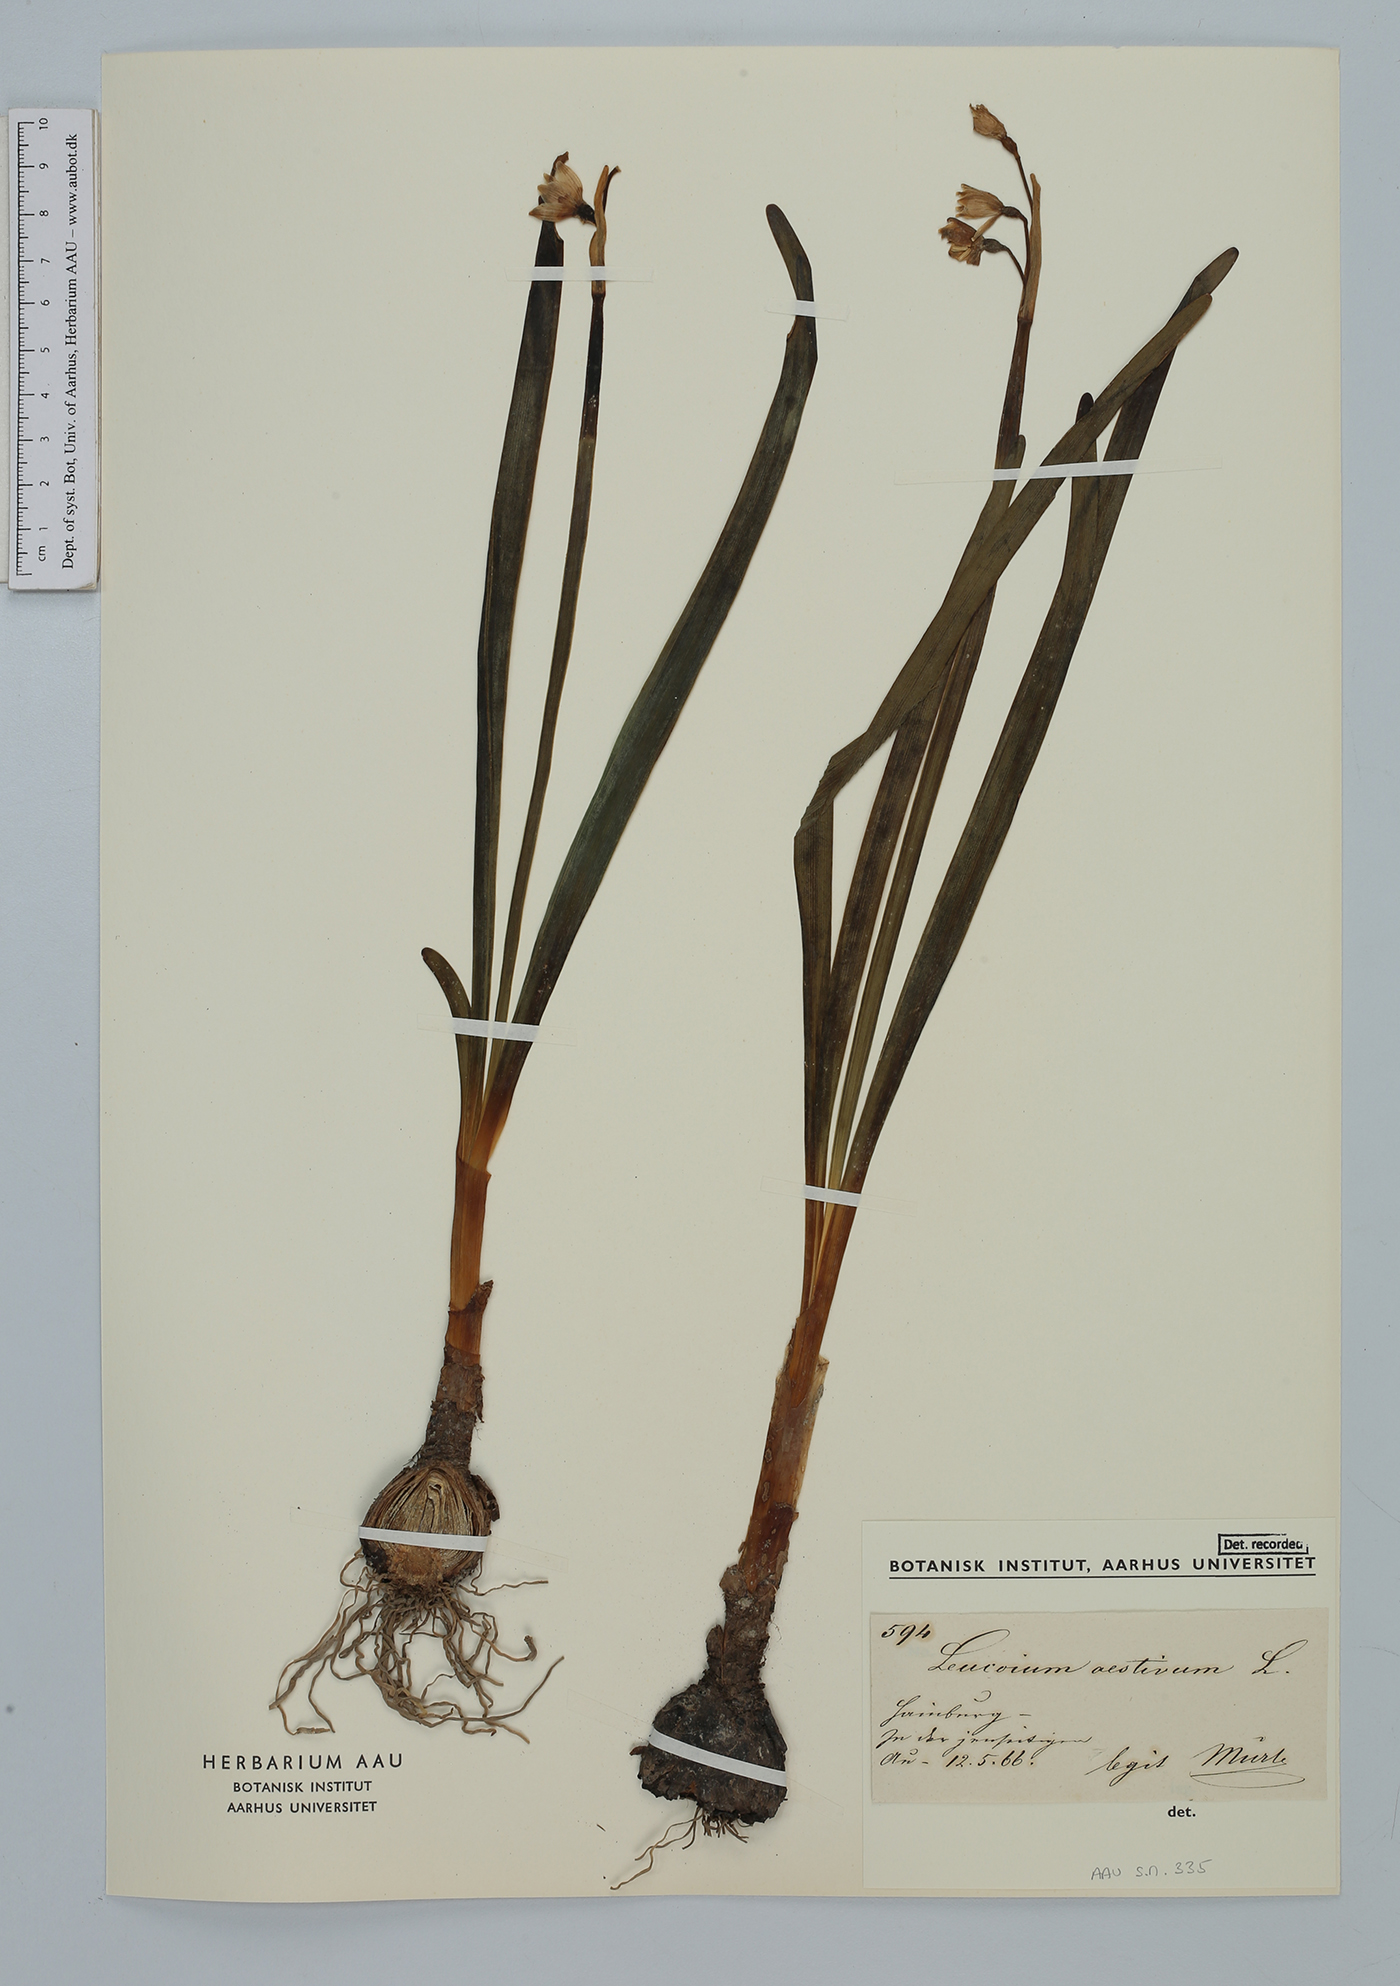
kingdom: Plantae
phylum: Tracheophyta
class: Liliopsida
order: Asparagales
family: Amaryllidaceae
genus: Leucojum
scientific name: Leucojum aestivum
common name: Summer snowflake
